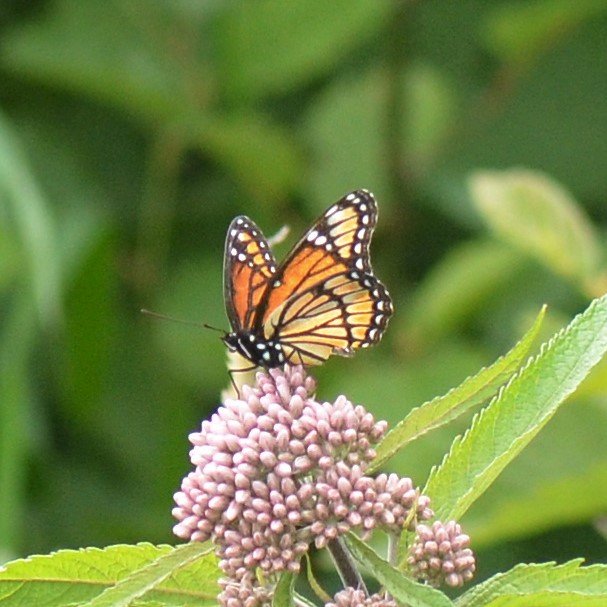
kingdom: Animalia
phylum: Arthropoda
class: Insecta
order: Lepidoptera
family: Nymphalidae
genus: Limenitis
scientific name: Limenitis archippus
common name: Viceroy
